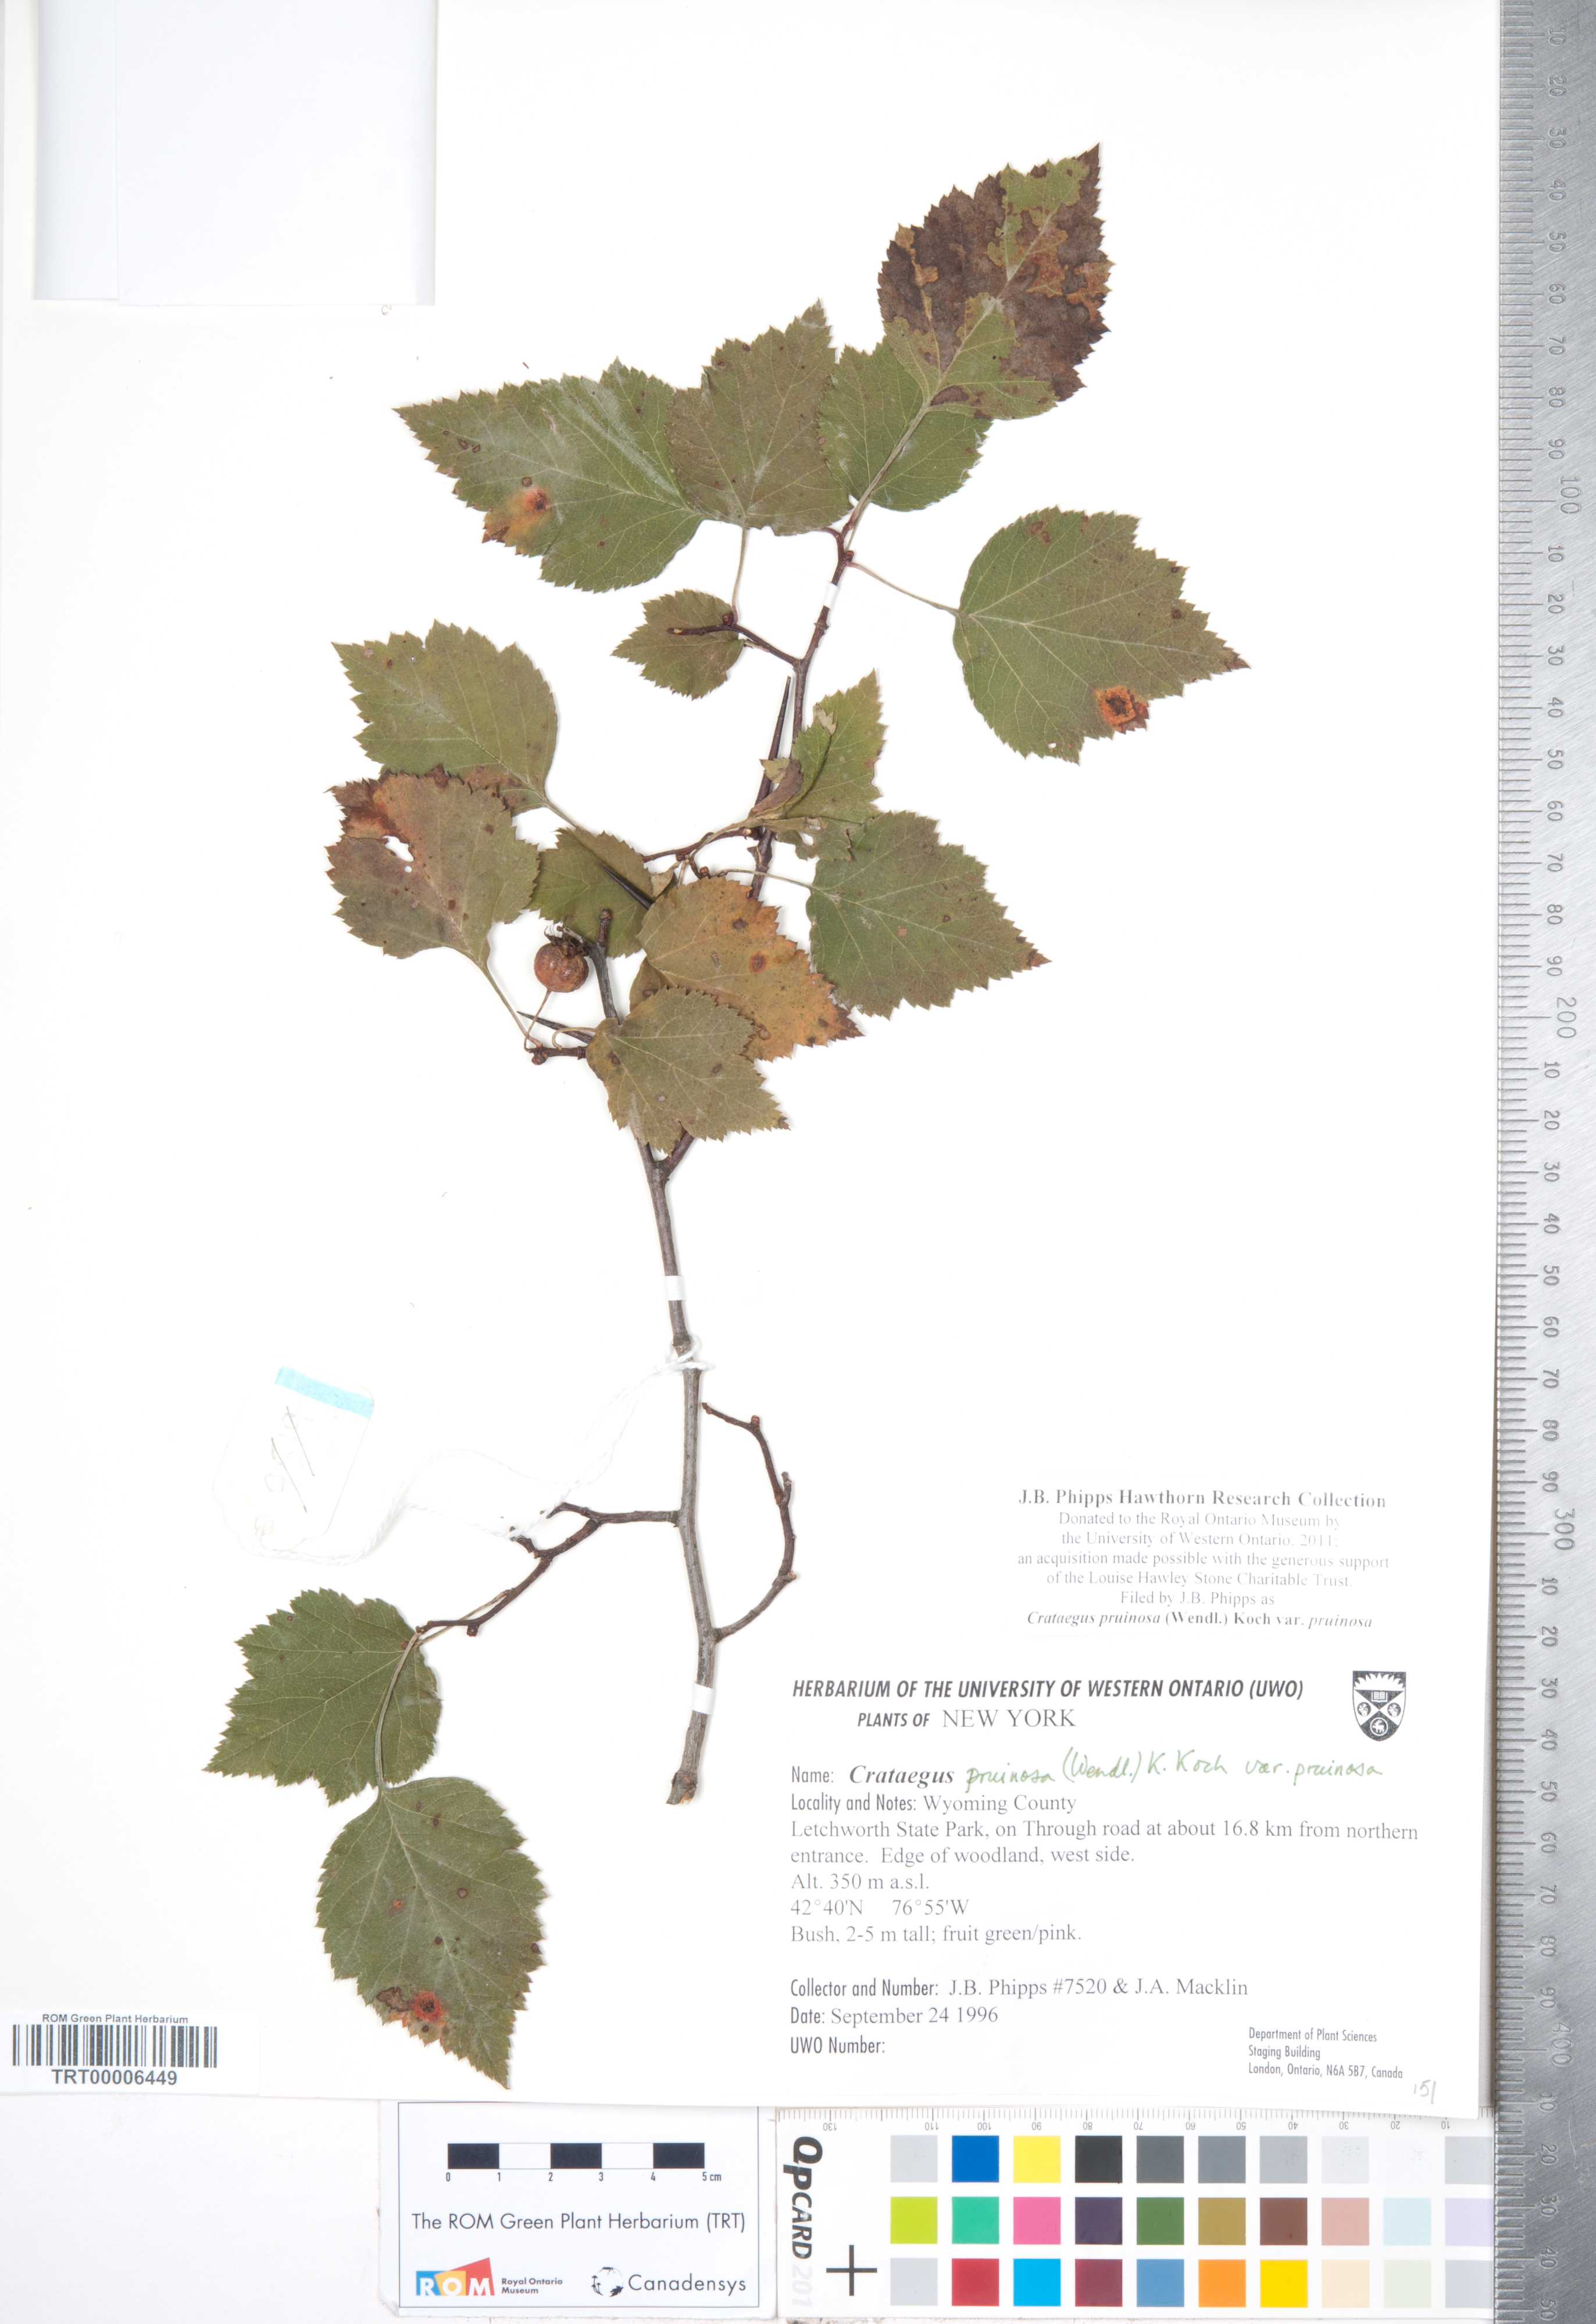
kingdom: Plantae
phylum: Tracheophyta
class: Magnoliopsida
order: Rosales
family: Rosaceae
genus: Crataegus
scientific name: Crataegus pruinosa
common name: Waxy-fruit hawthorn
